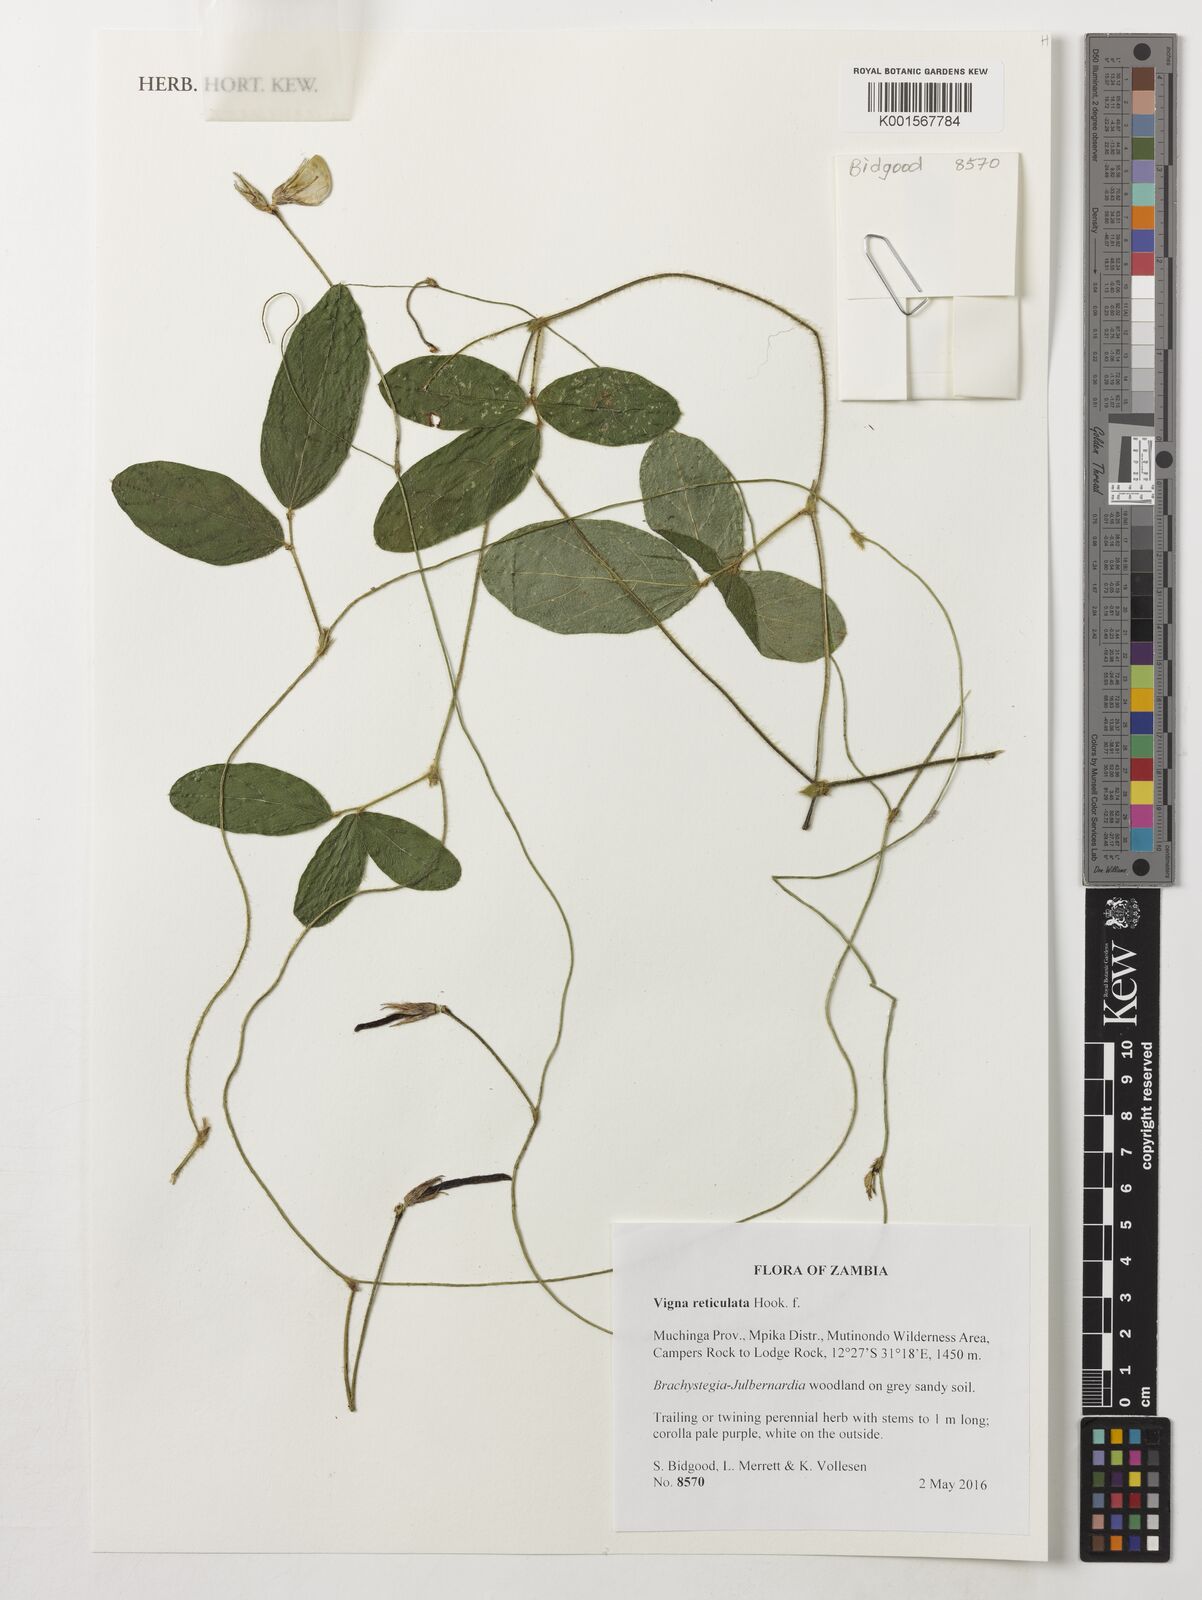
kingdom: Plantae
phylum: Tracheophyta
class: Magnoliopsida
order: Fabales
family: Fabaceae
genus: Vigna
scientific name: Vigna reticulata
